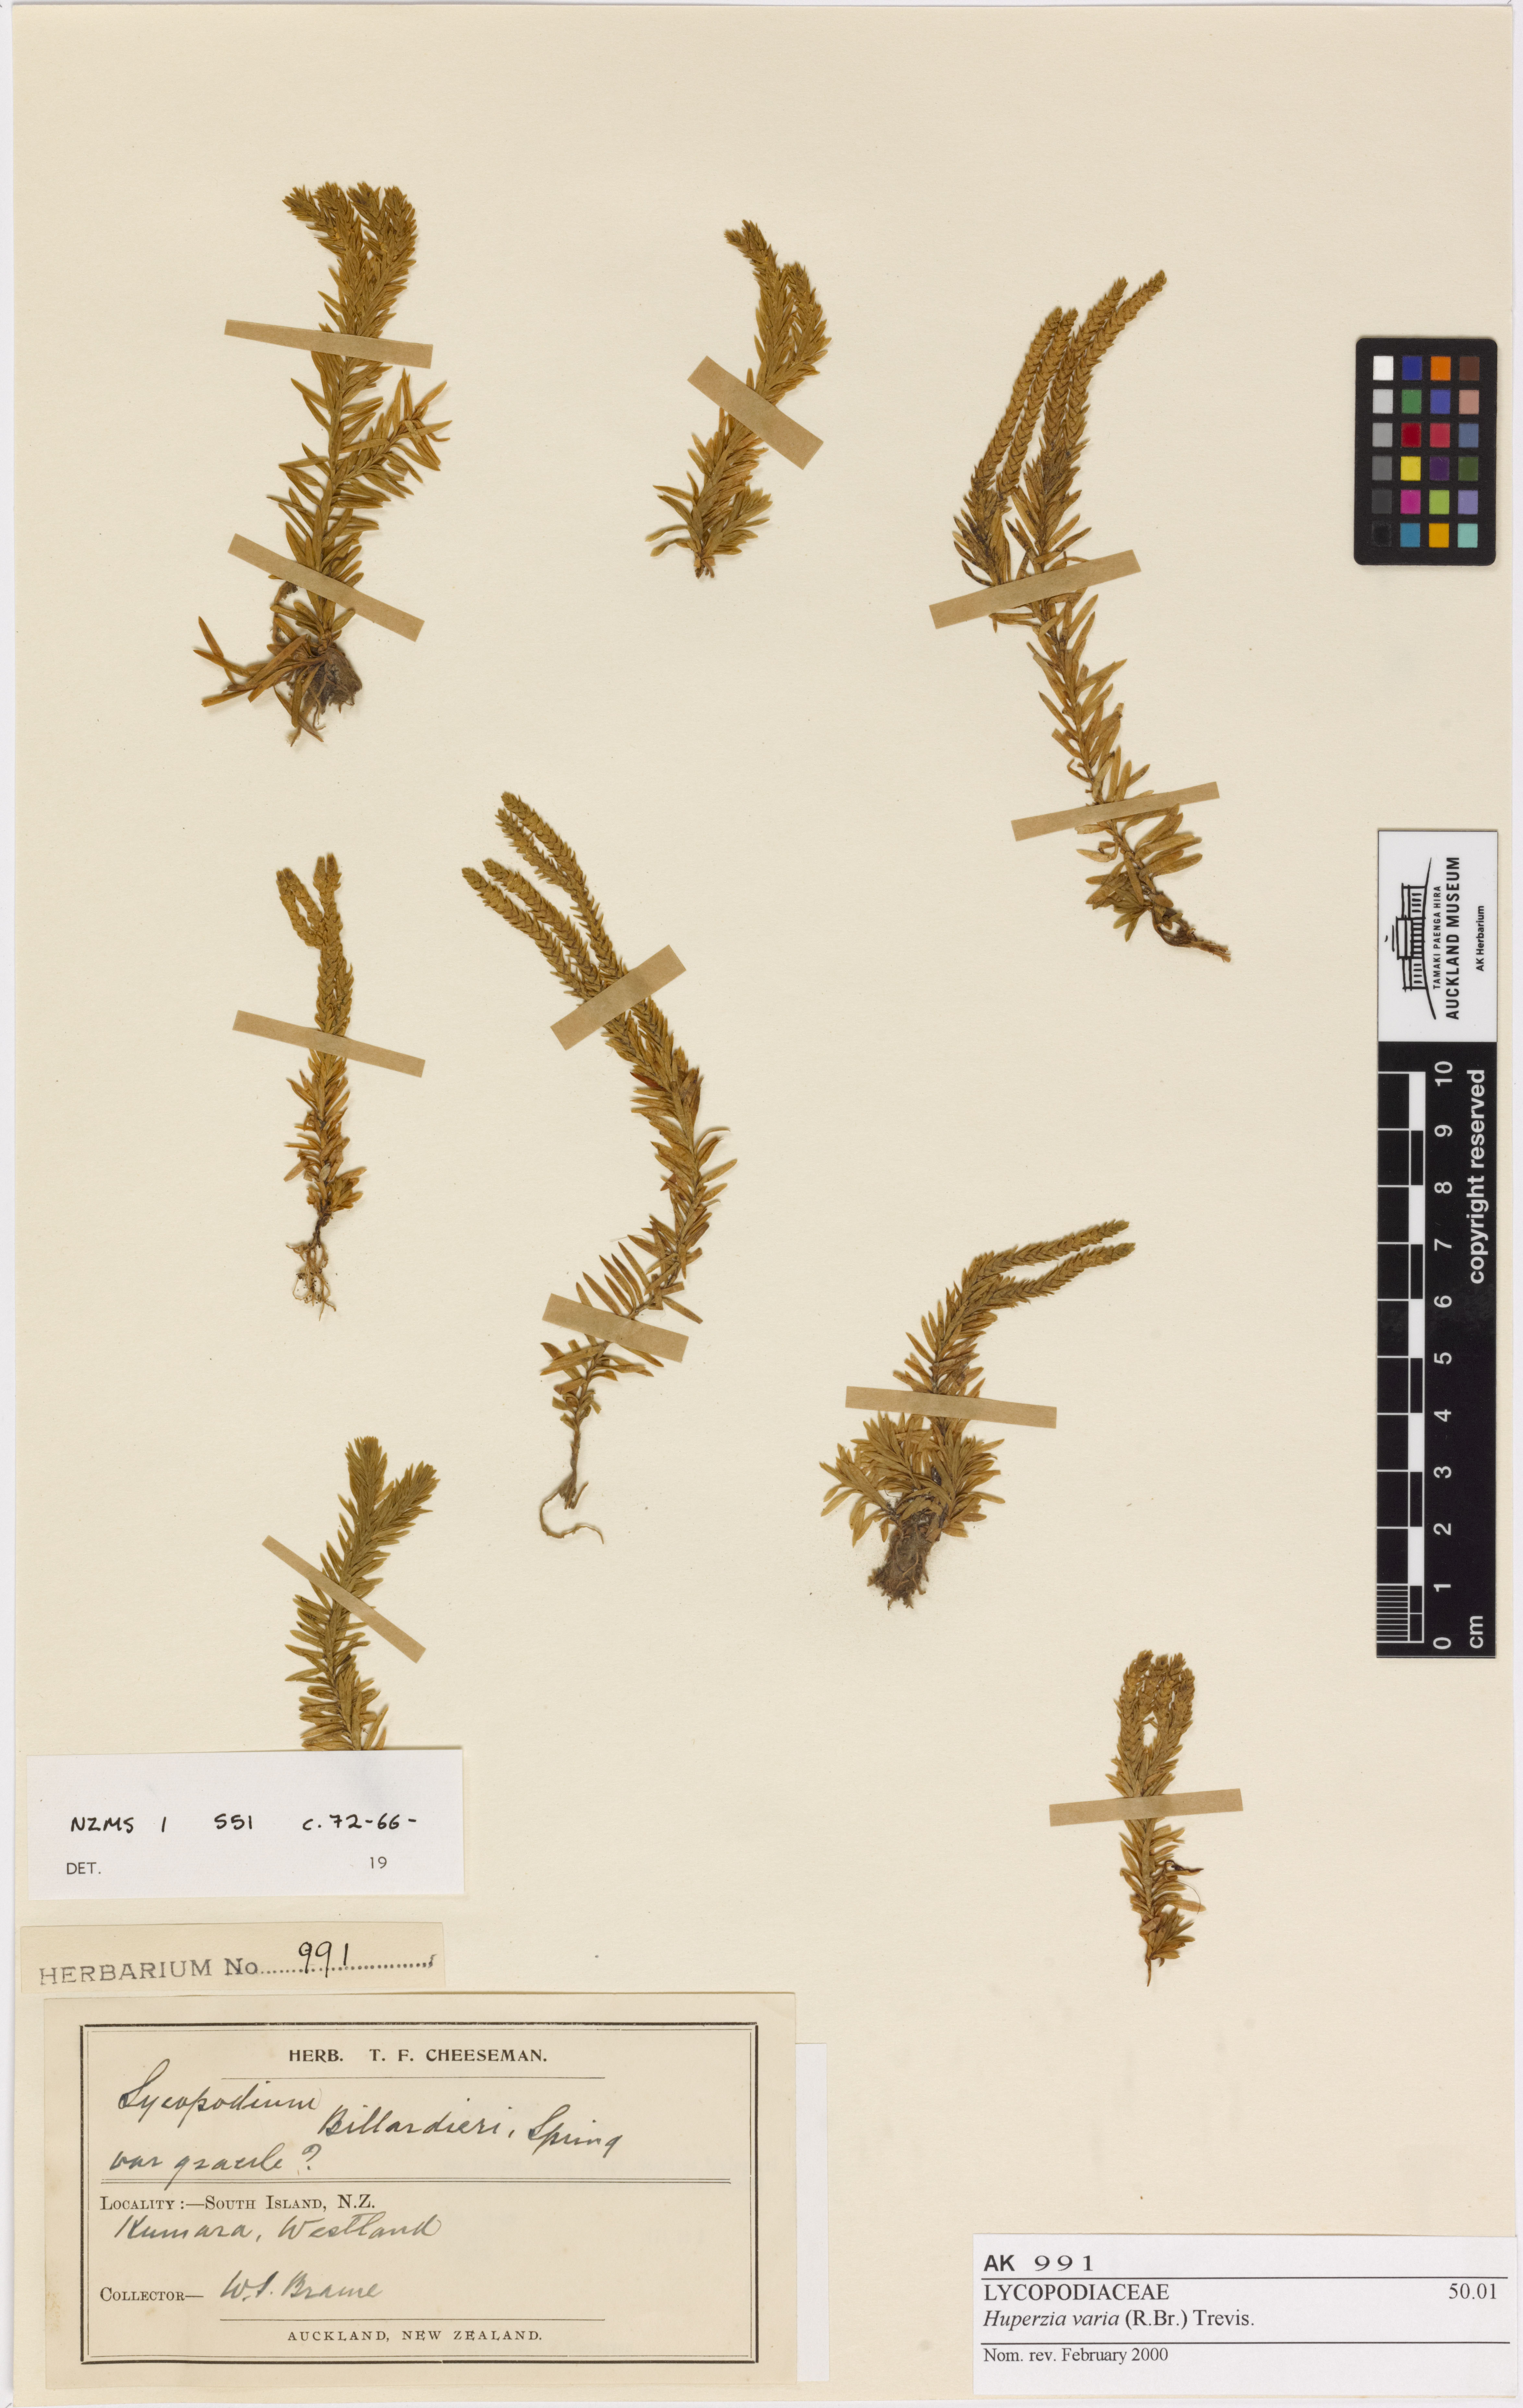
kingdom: Plantae
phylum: Tracheophyta
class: Lycopodiopsida
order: Lycopodiales
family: Lycopodiaceae
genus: Phlegmariurus
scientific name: Phlegmariurus varius
